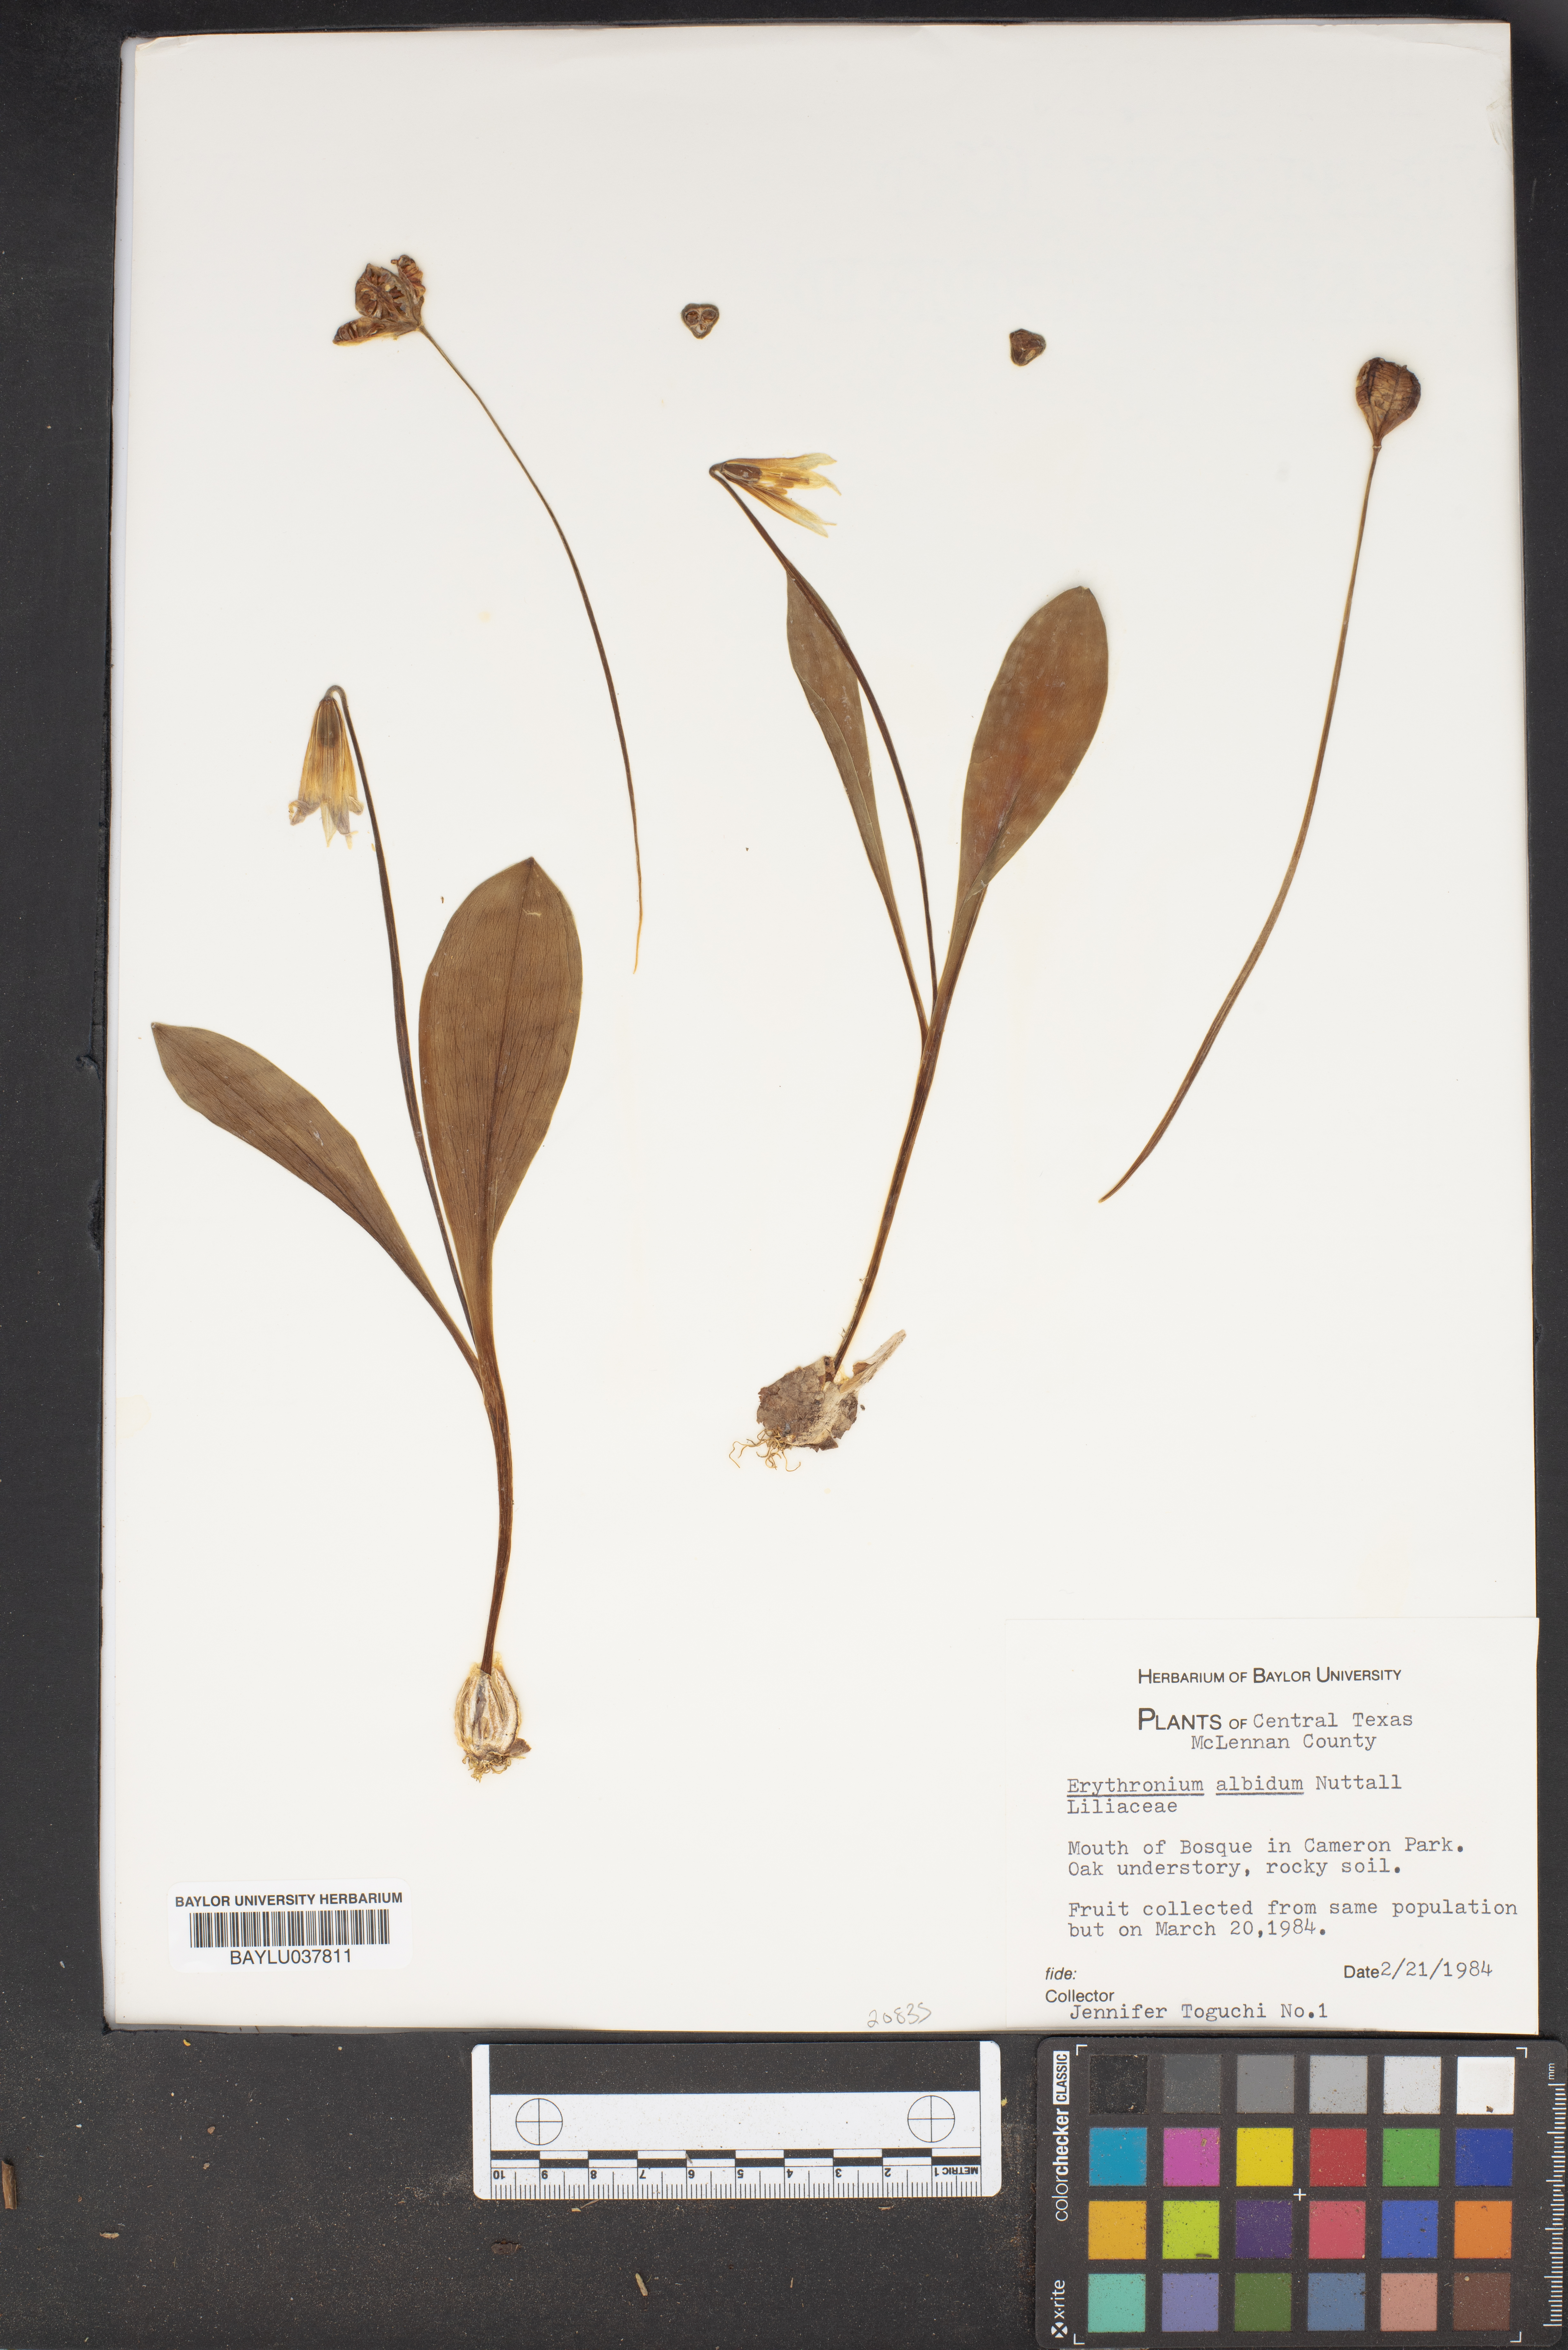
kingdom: Plantae
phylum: Tracheophyta
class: Liliopsida
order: Liliales
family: Liliaceae
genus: Erythronium
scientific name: Erythronium albidum
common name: White trout-lily
